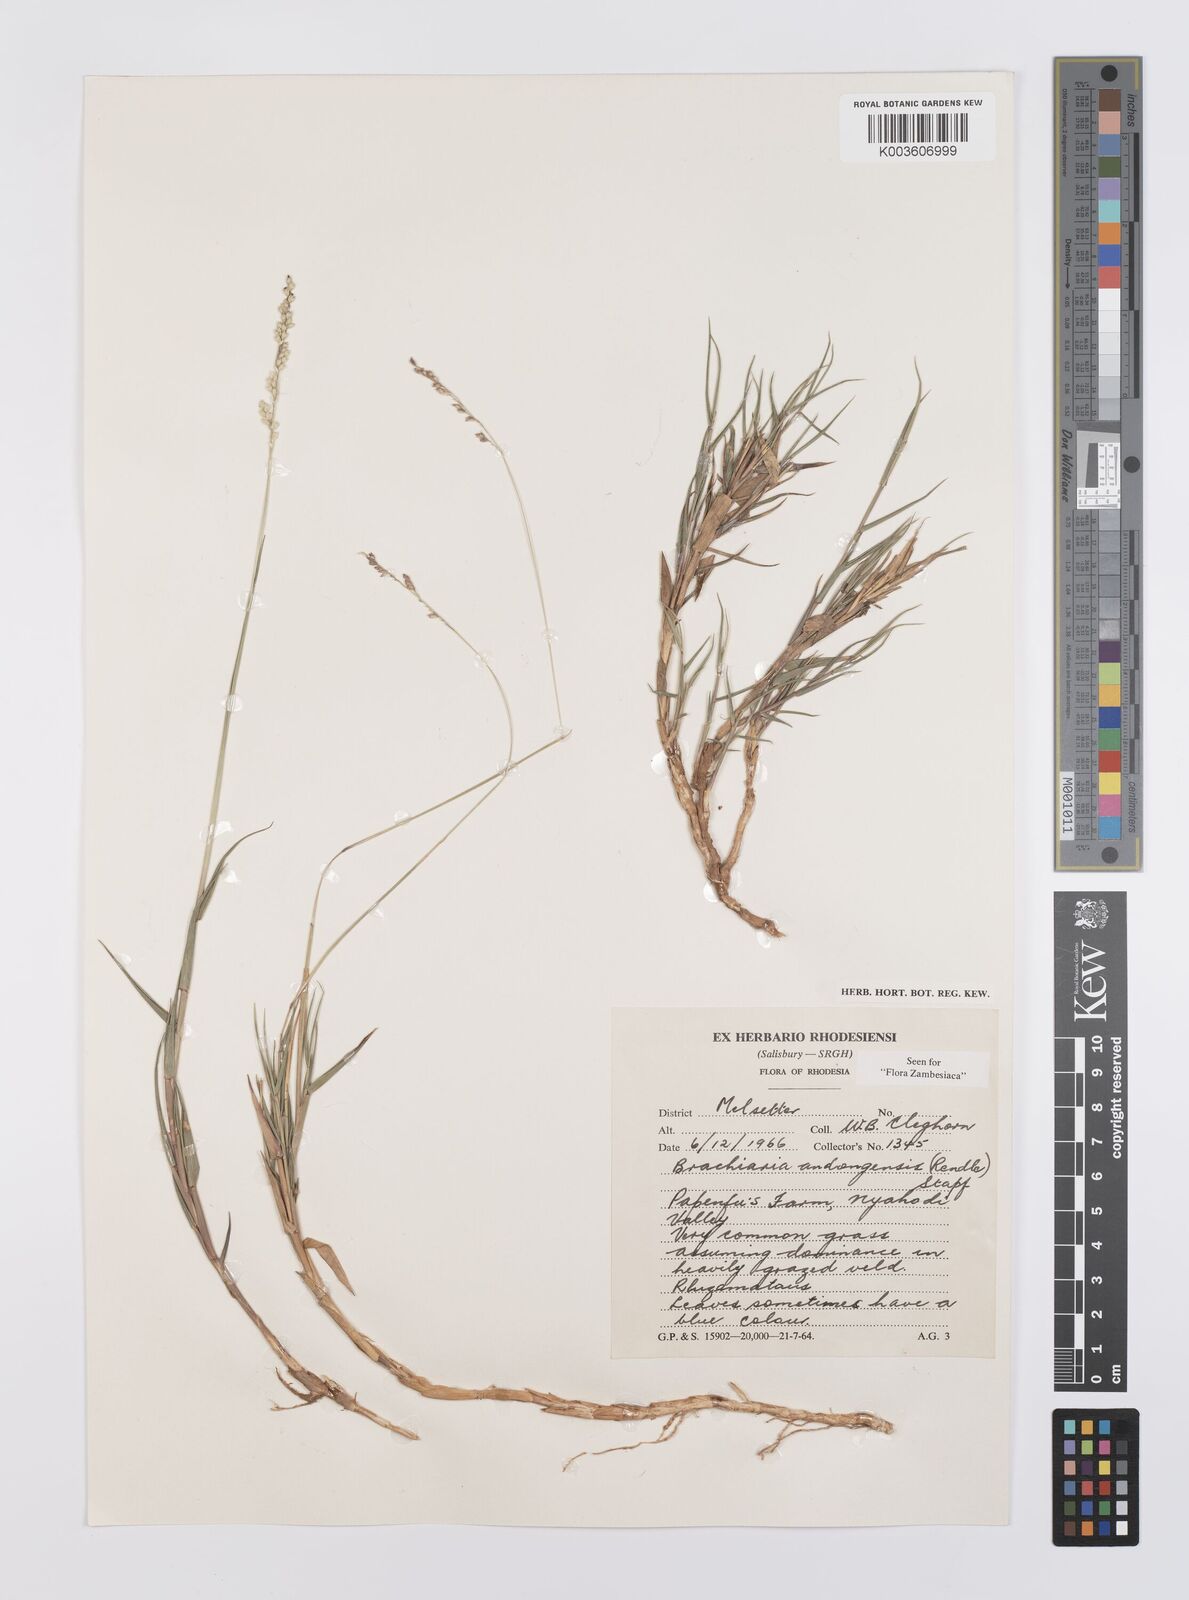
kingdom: Plantae
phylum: Tracheophyta
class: Liliopsida
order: Poales
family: Poaceae
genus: Urochloa
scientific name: Urochloa serrata
